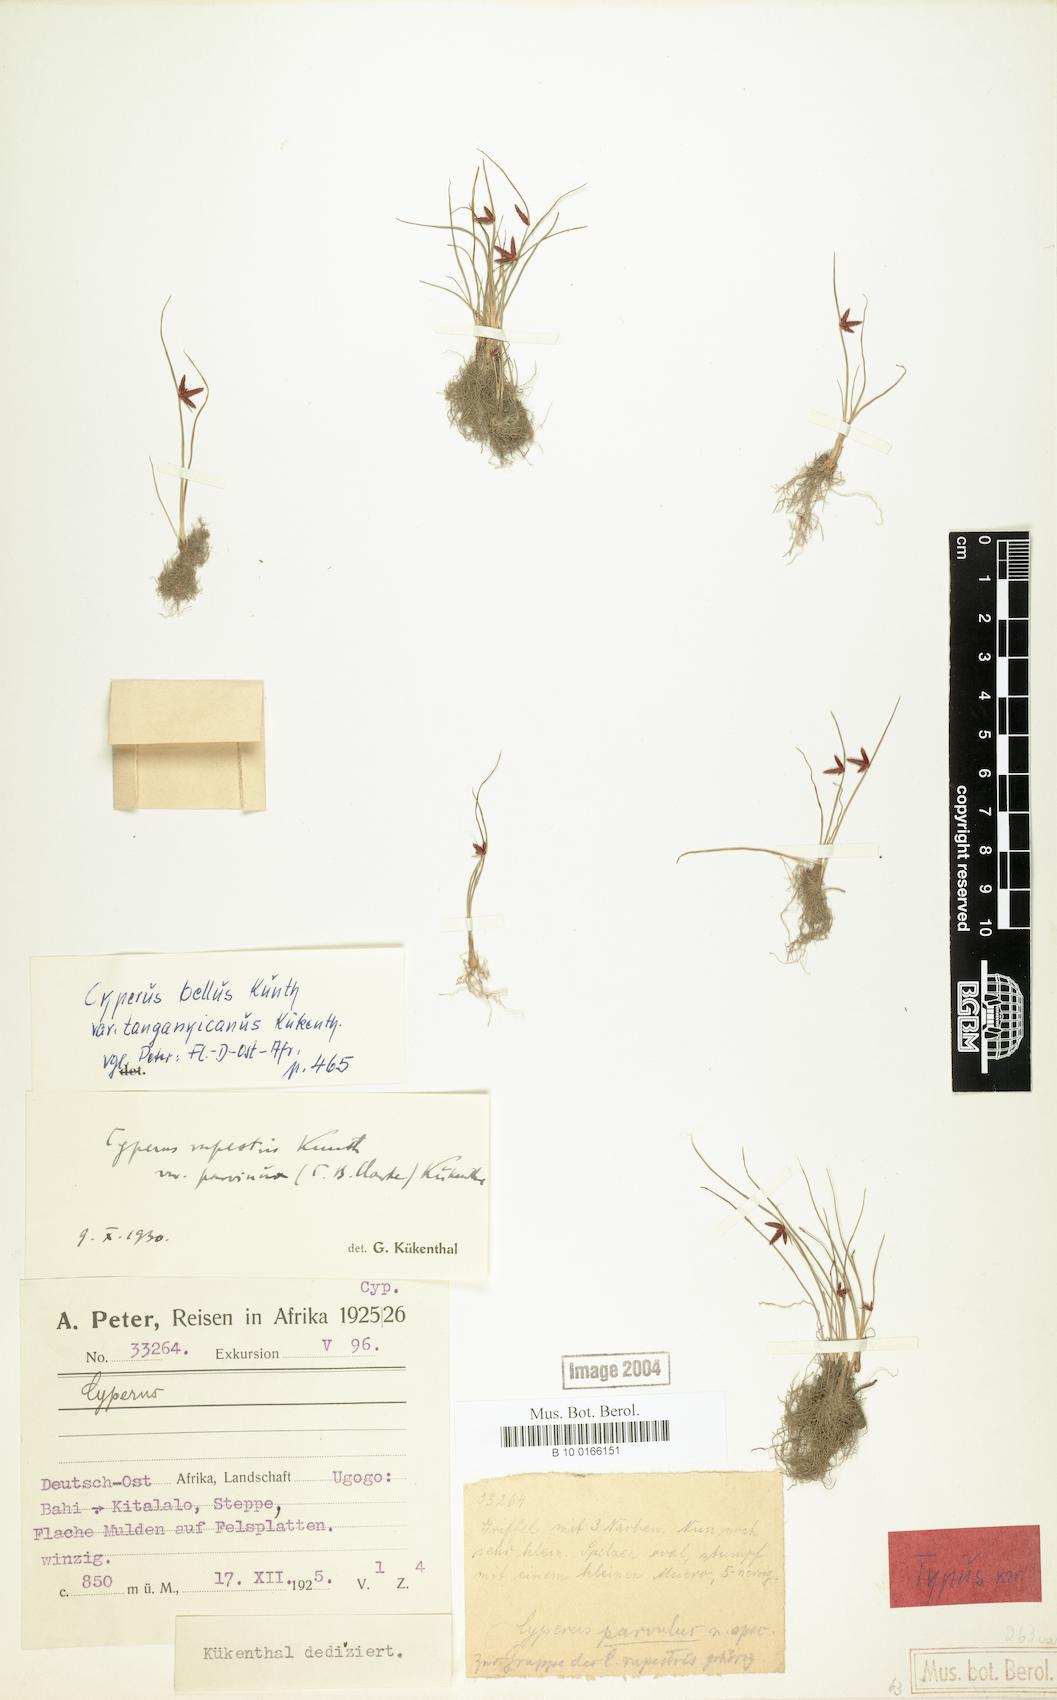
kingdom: Plantae
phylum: Tracheophyta
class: Liliopsida
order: Poales
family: Cyperaceae
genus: Cyperus
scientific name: Cyperus semitrifidus
